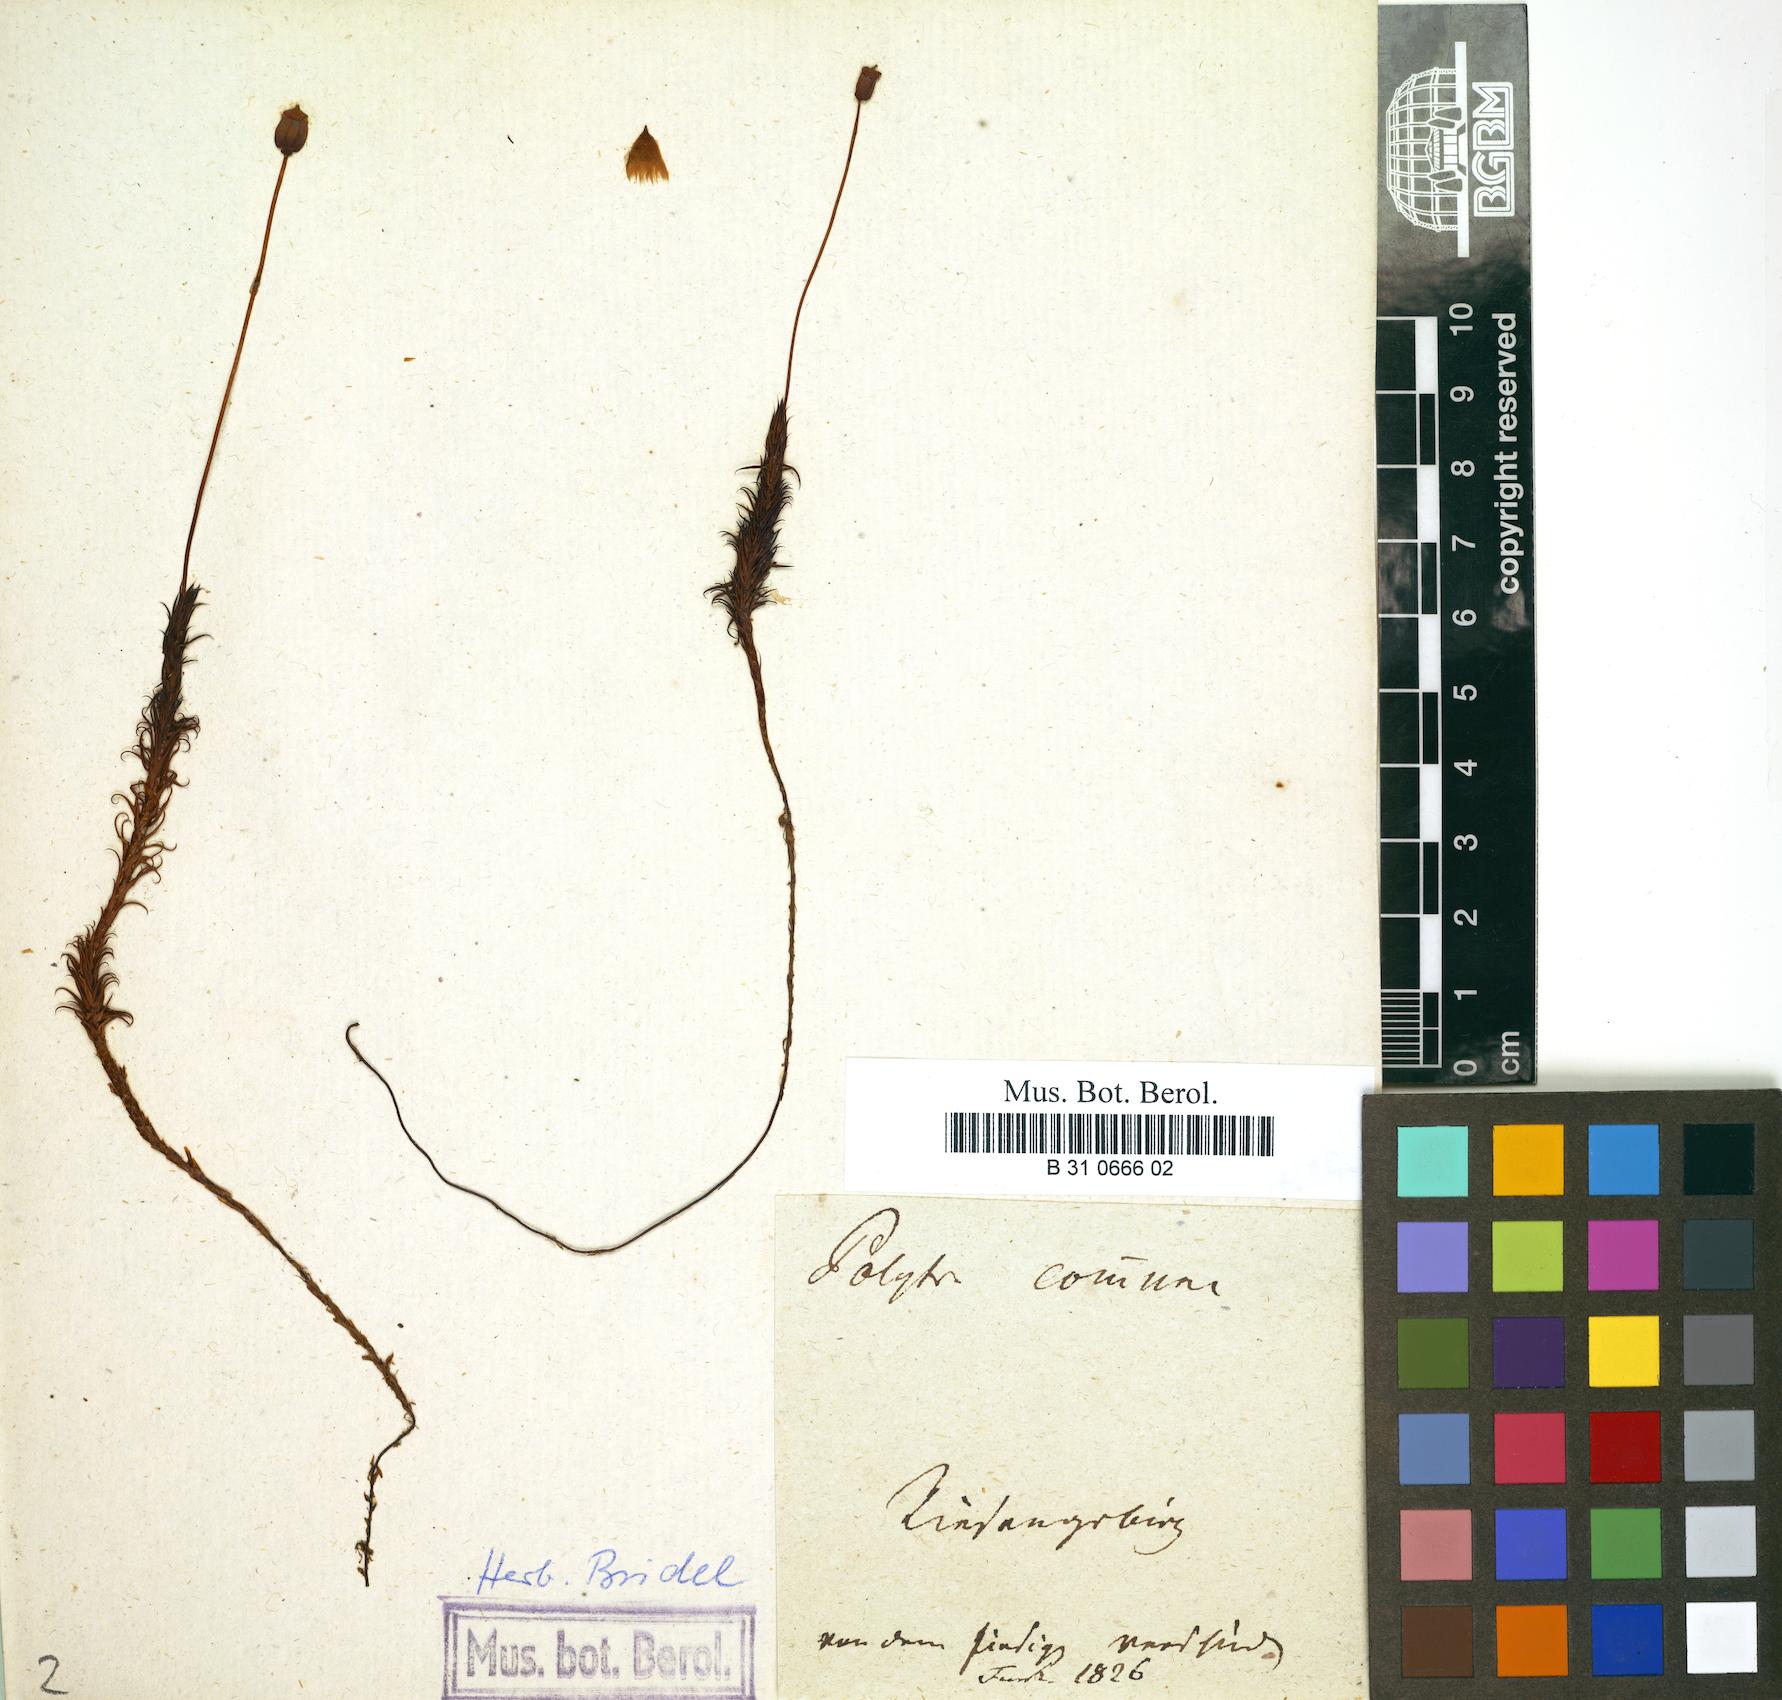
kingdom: Plantae
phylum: Bryophyta
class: Polytrichopsida
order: Polytrichales
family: Polytrichaceae
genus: Polytrichum
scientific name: Polytrichum commune
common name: Common haircap
